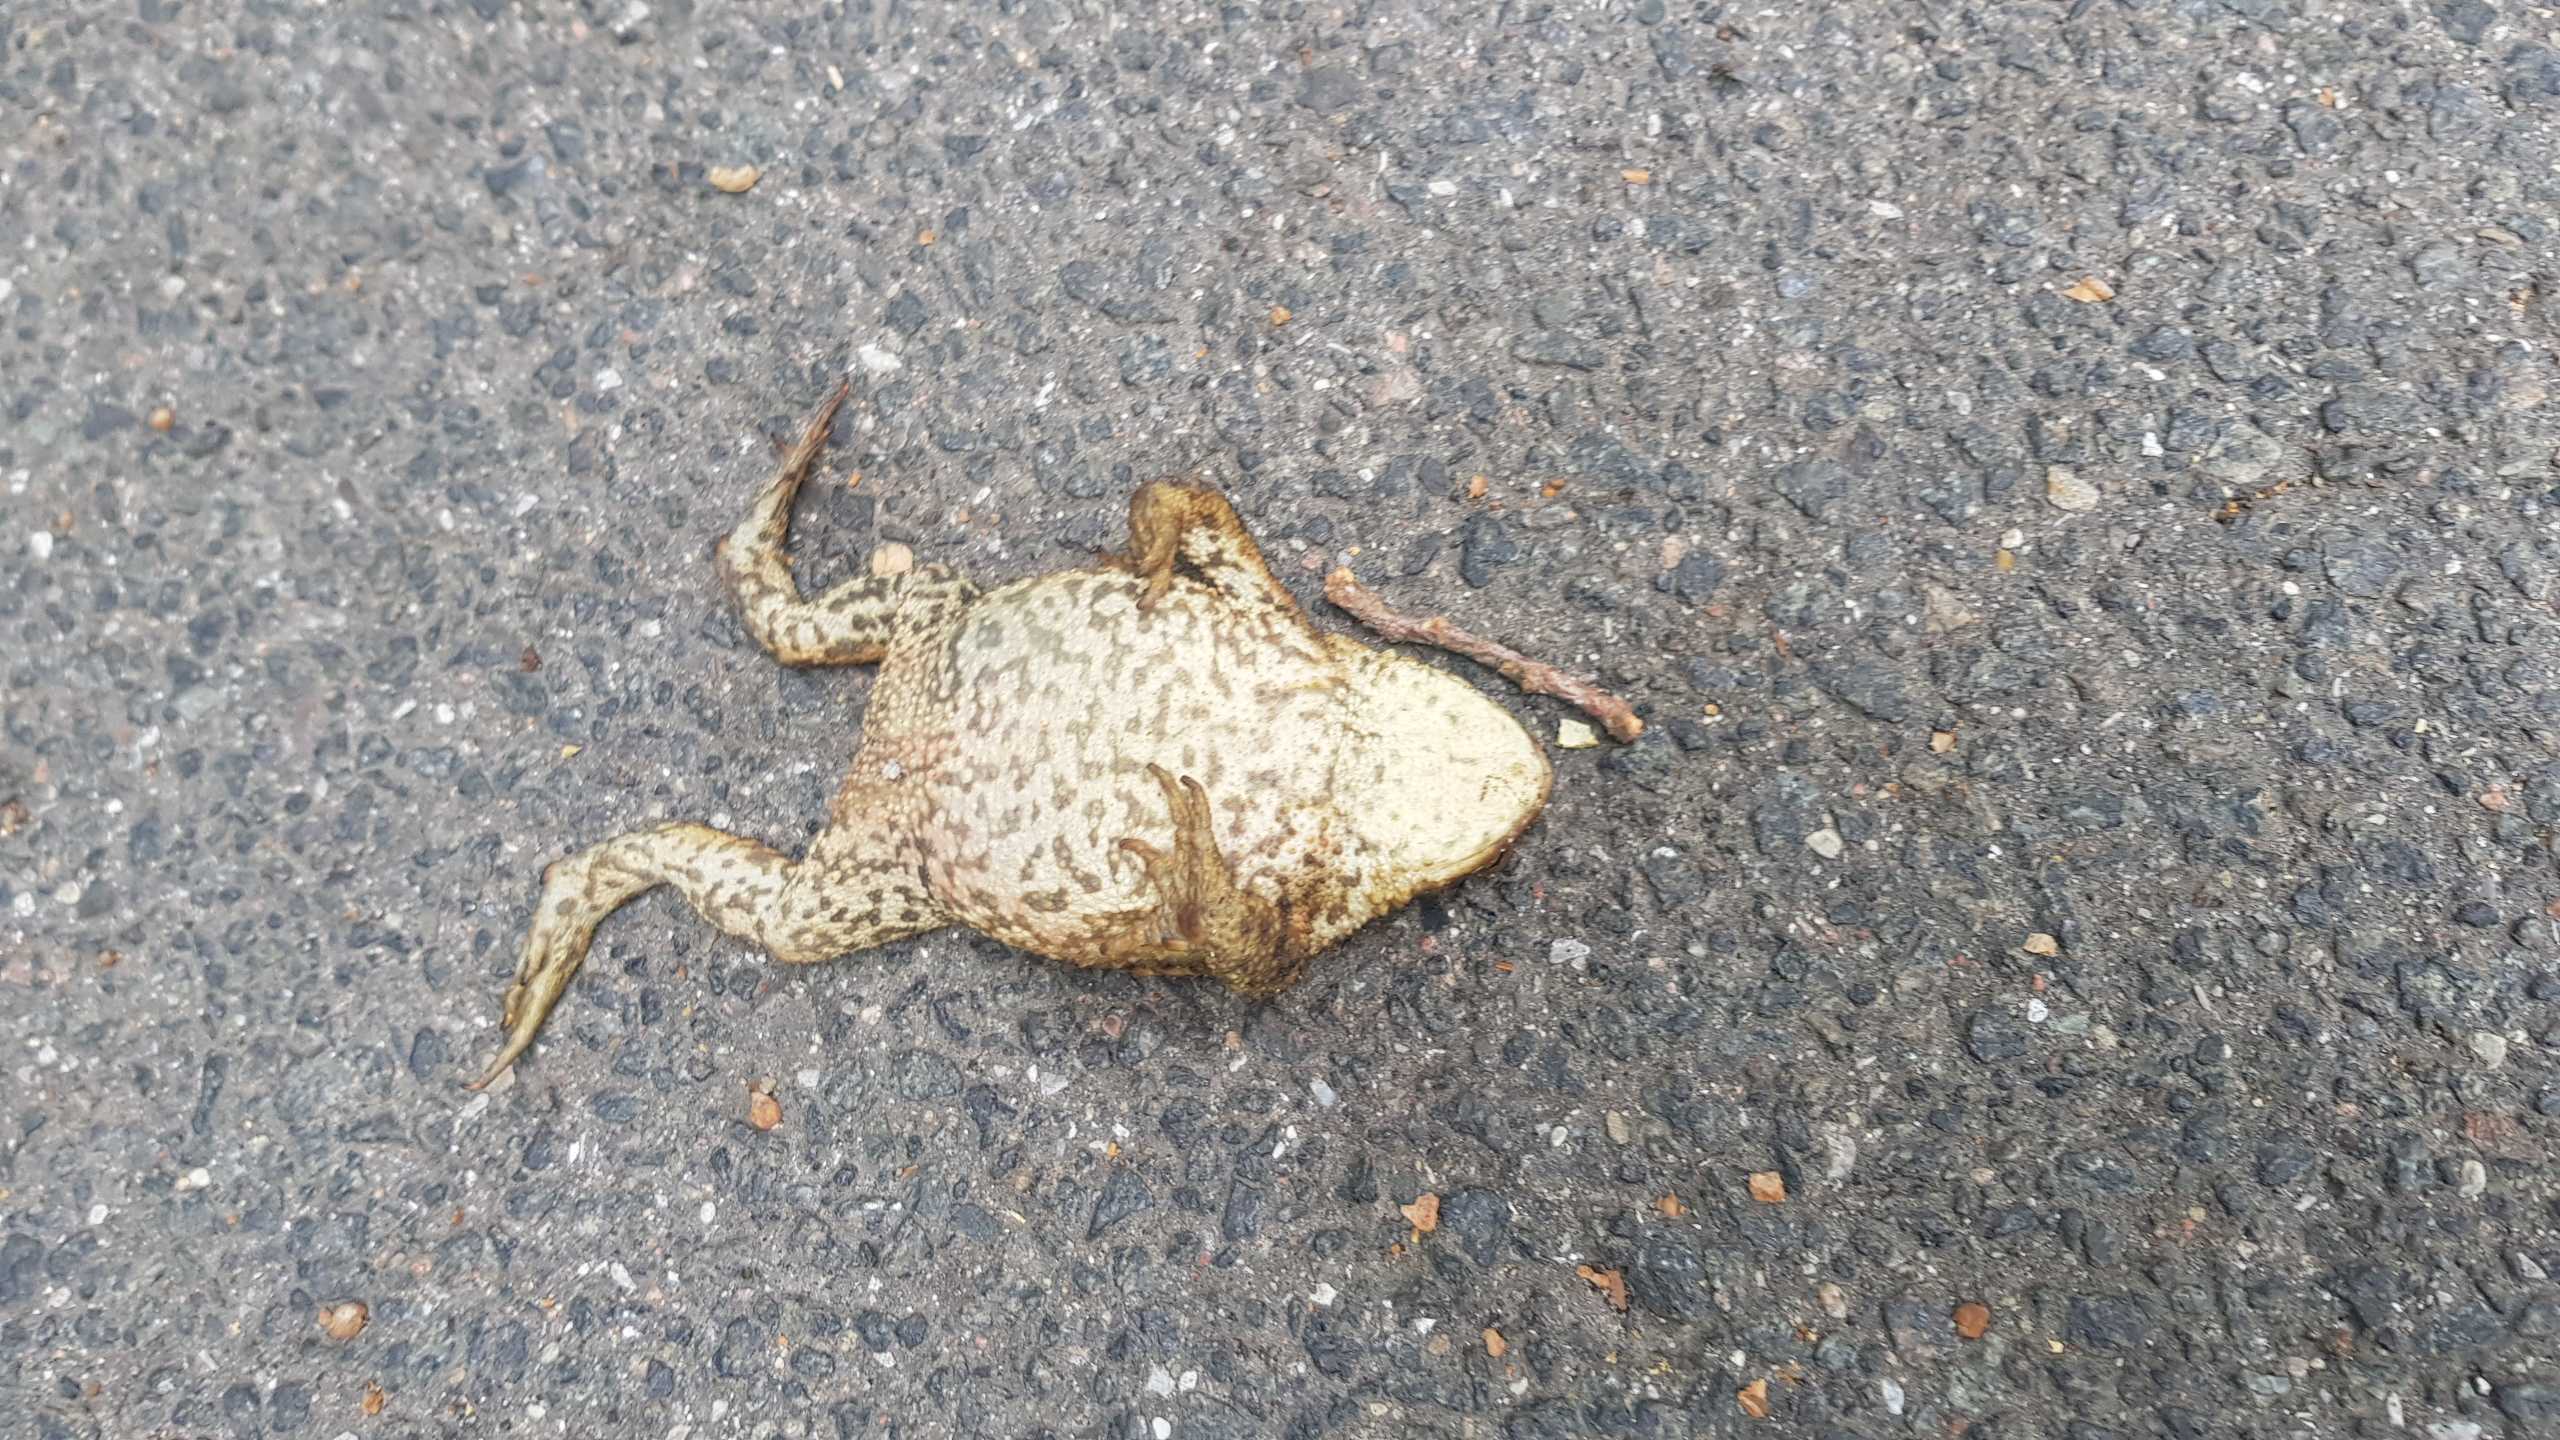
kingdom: Animalia
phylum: Chordata
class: Amphibia
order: Anura
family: Bufonidae
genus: Bufo
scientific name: Bufo bufo
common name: Skrubtudse
